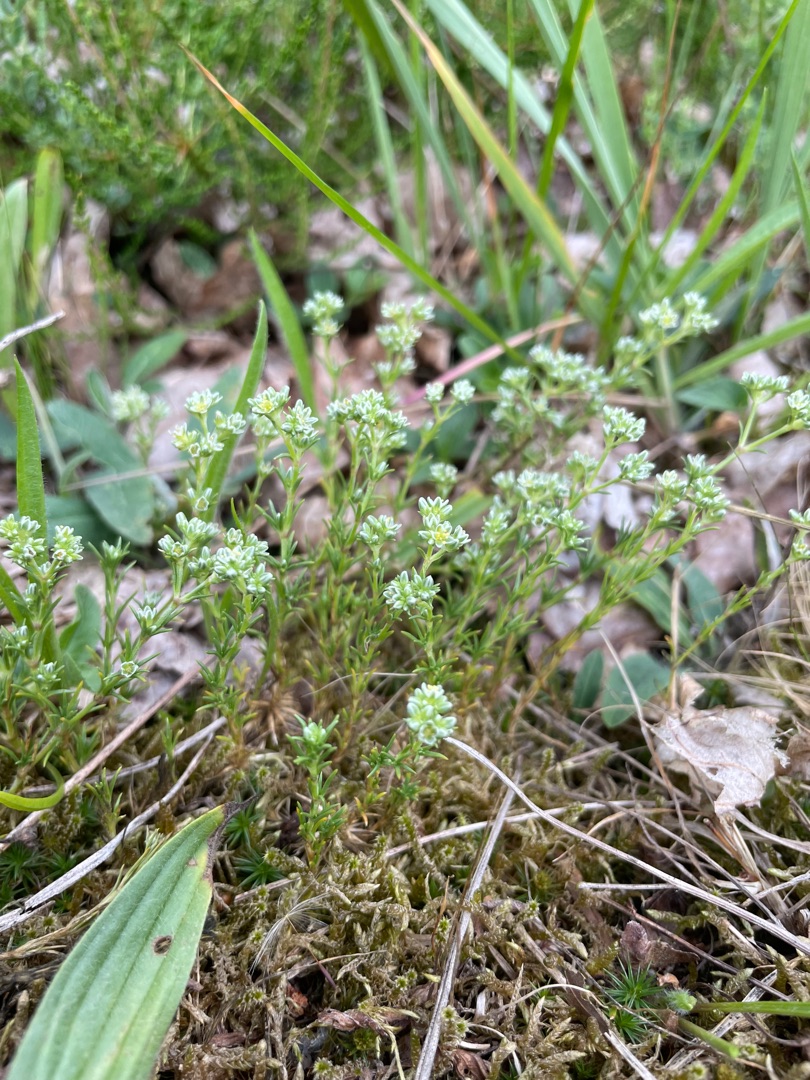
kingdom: Plantae
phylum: Tracheophyta
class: Magnoliopsida
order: Caryophyllales
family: Caryophyllaceae
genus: Scleranthus
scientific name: Scleranthus perennis
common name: Flerårig knavel
